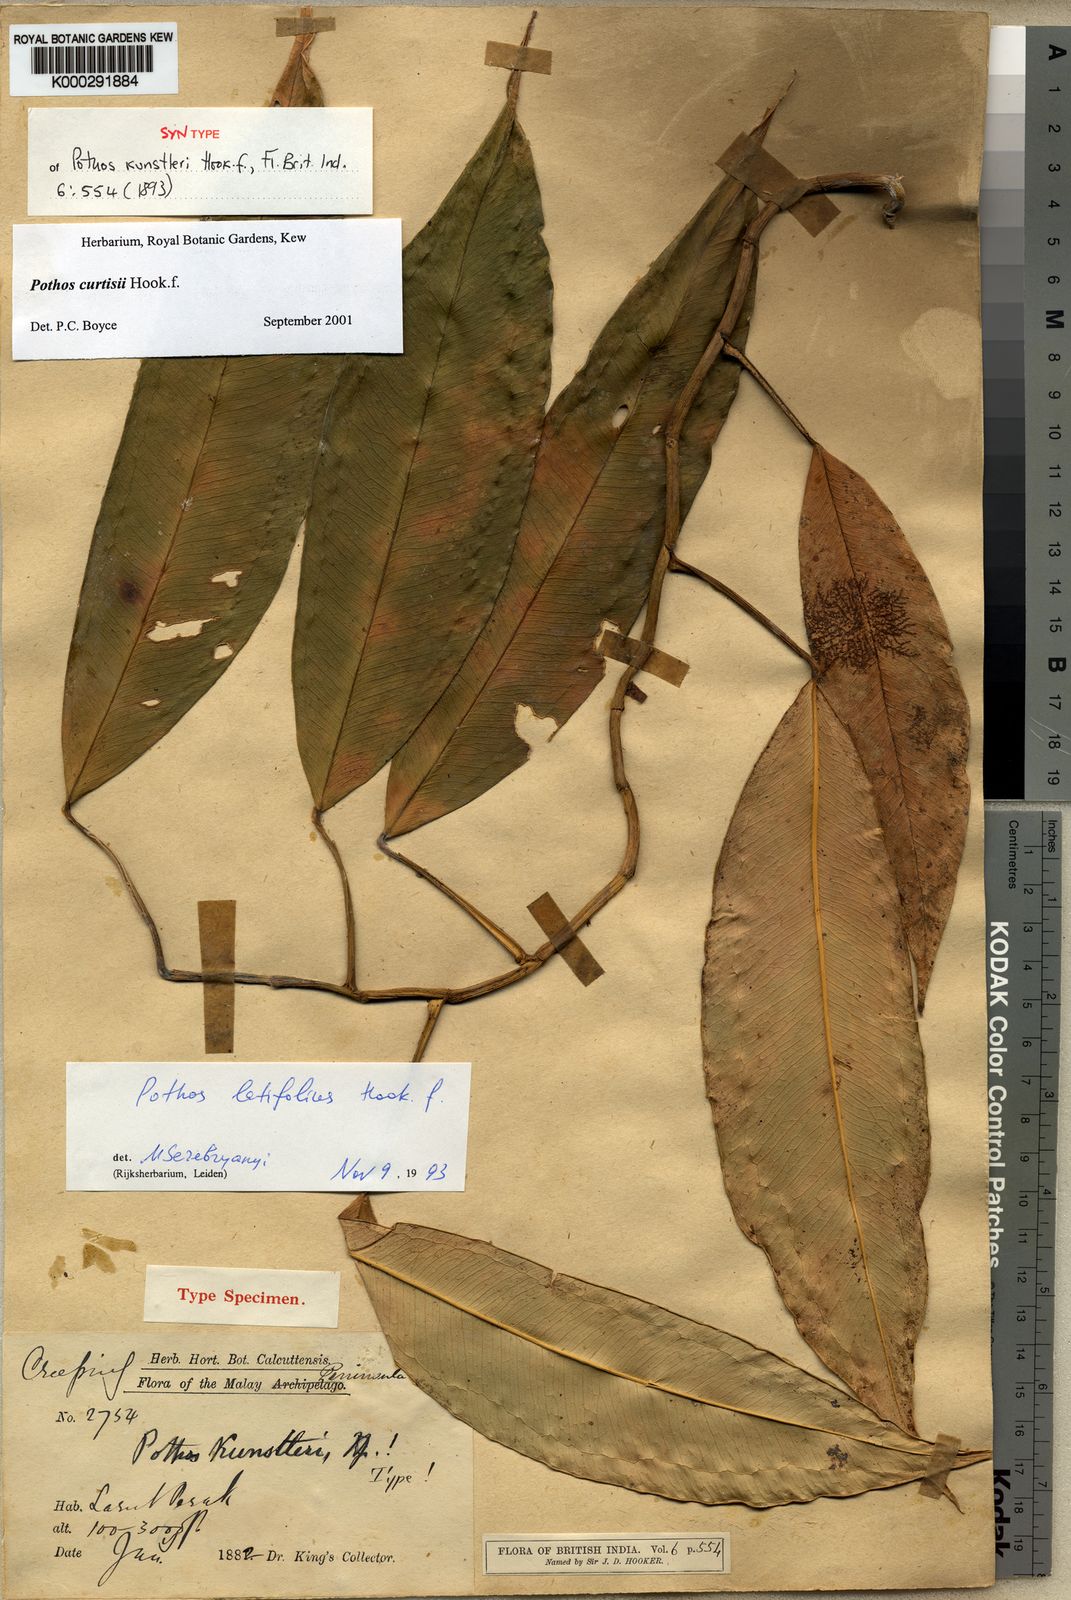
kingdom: Plantae
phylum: Tracheophyta
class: Liliopsida
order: Alismatales
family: Araceae
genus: Pothos
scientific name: Pothos curtisii
